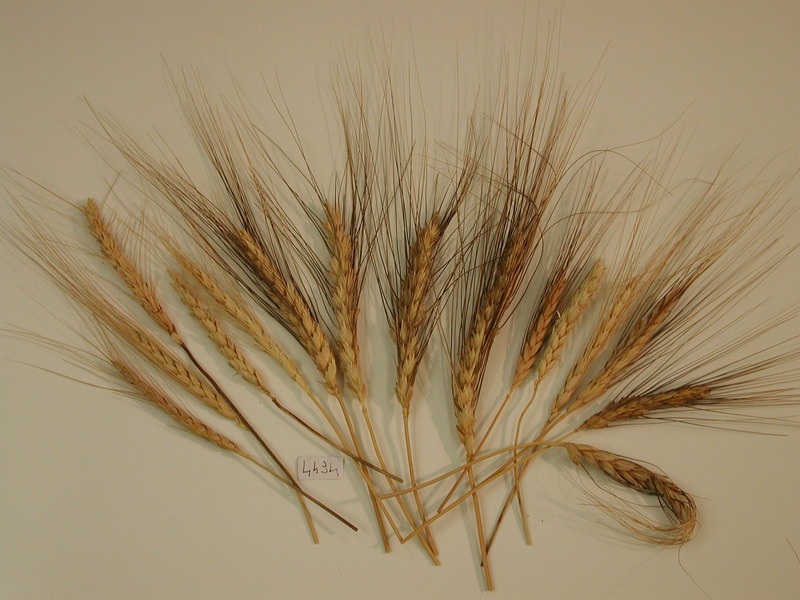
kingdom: Plantae
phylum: Tracheophyta
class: Liliopsida
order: Poales
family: Poaceae
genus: Eremopyrum
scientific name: Eremopyrum orientale
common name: Oriental false wheatgrass
